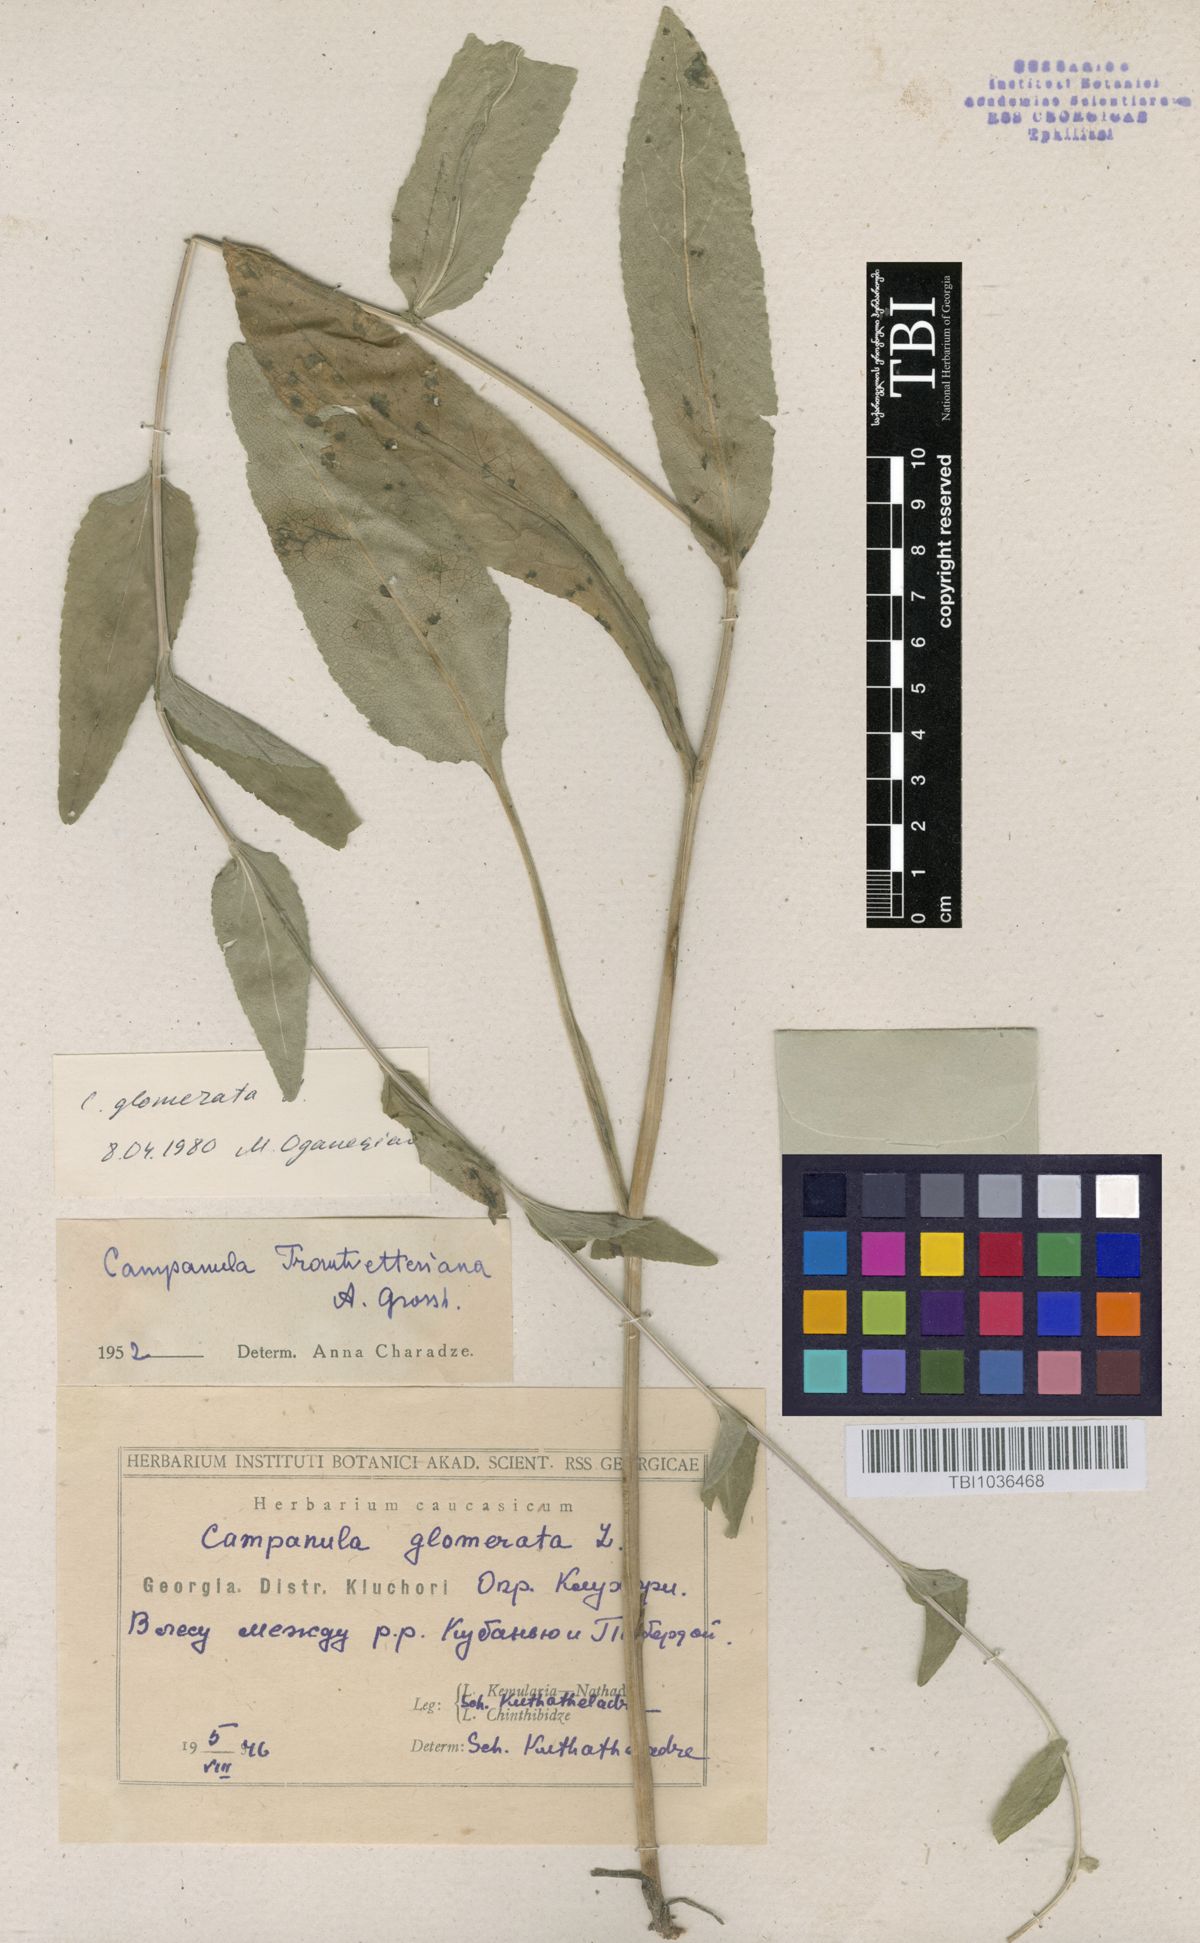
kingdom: Plantae
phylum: Tracheophyta
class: Magnoliopsida
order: Asterales
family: Campanulaceae
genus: Campanula
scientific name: Campanula glomerata
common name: Clustered bellflower
